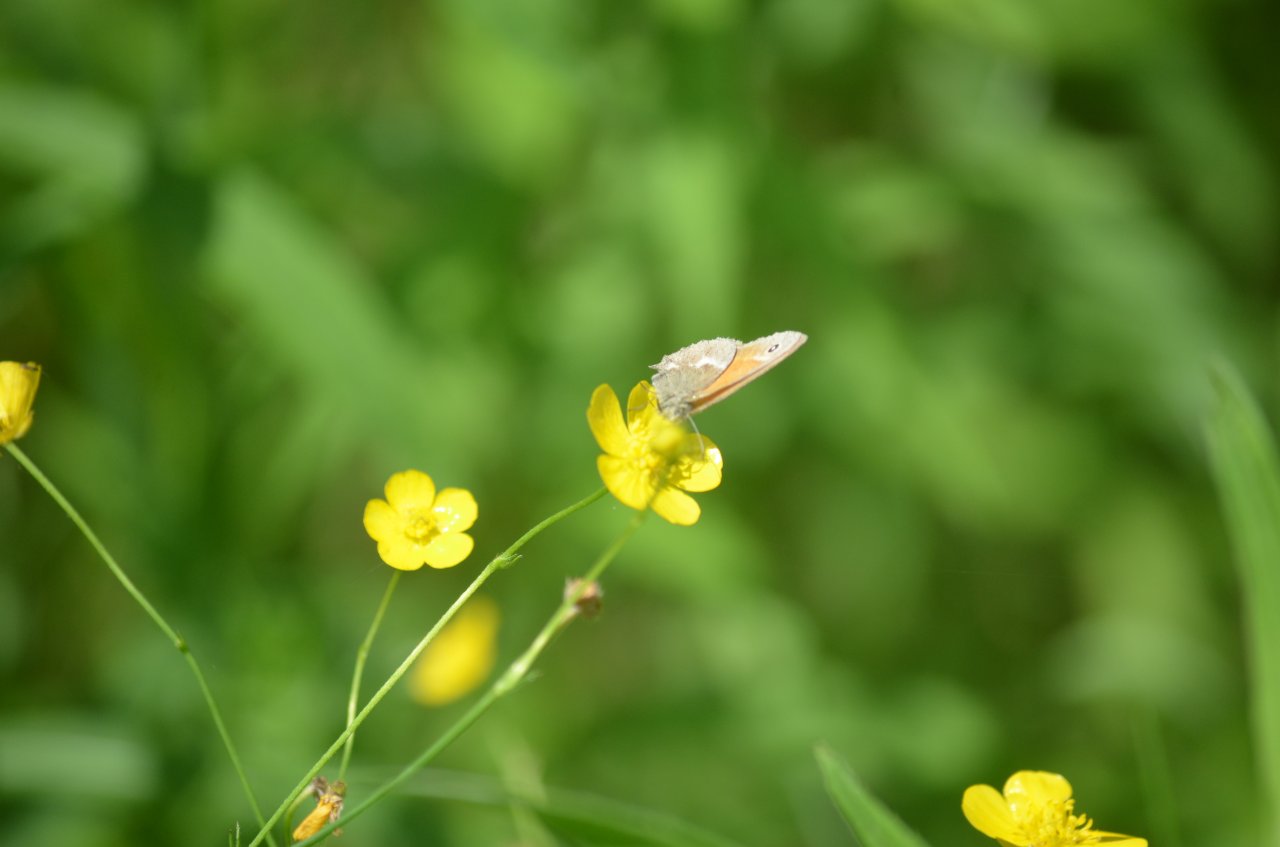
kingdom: Animalia
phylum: Arthropoda
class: Insecta
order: Lepidoptera
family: Nymphalidae
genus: Coenonympha
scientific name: Coenonympha tullia
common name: Large Heath
